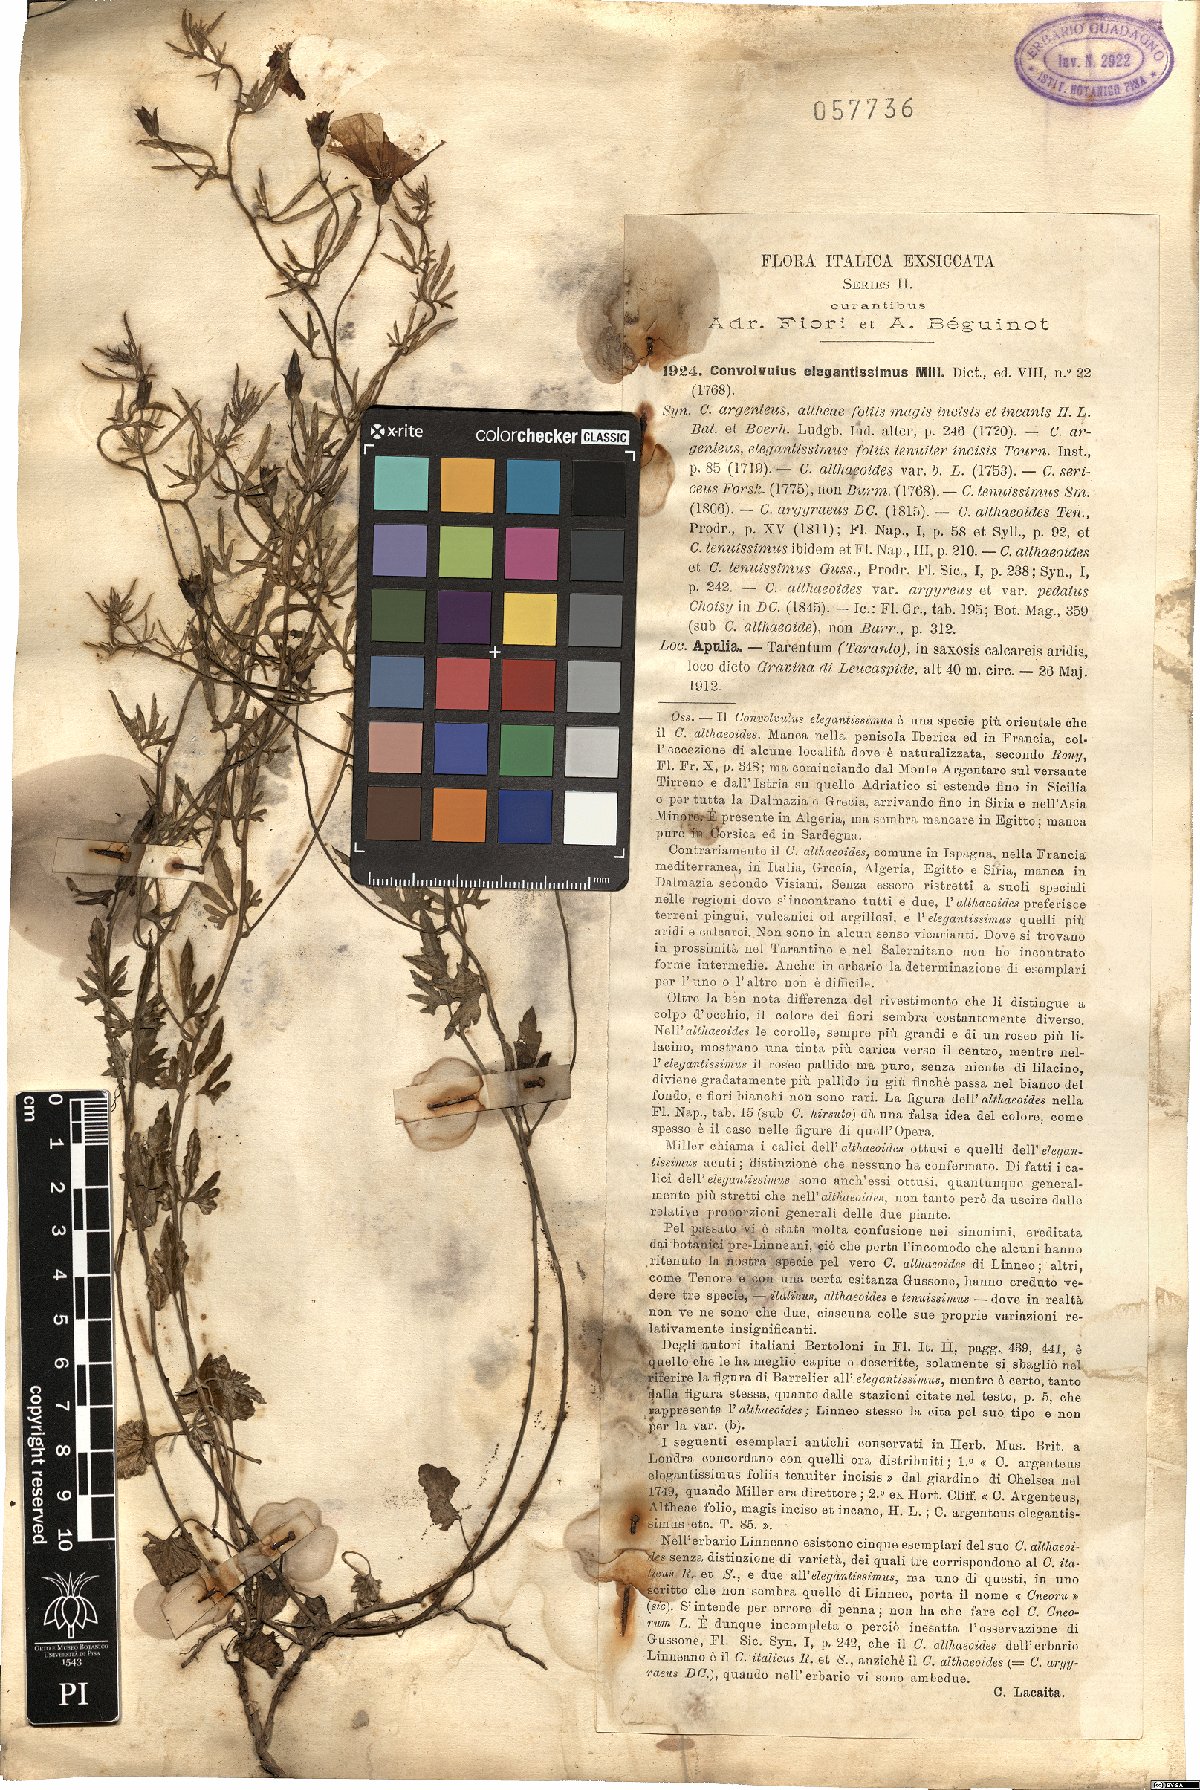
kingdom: Plantae
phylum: Tracheophyta
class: Magnoliopsida
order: Solanales
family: Convolvulaceae
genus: Convolvulus
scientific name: Convolvulus elegantissimus
